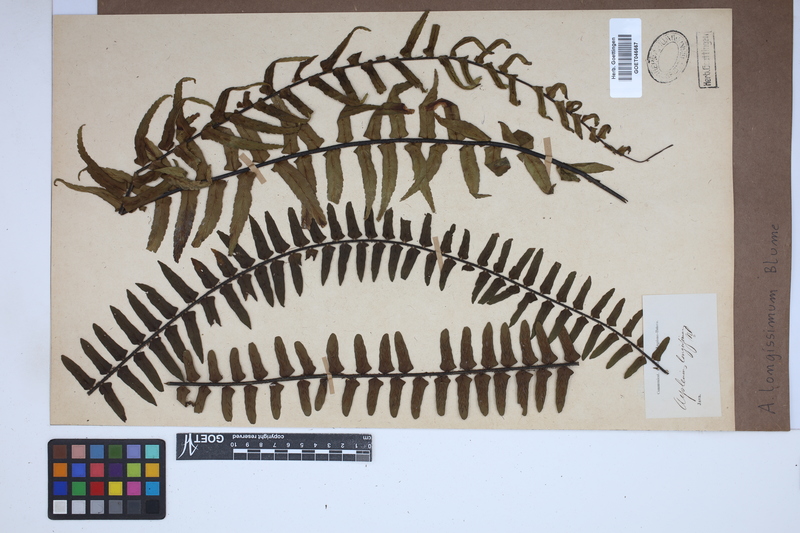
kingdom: Plantae
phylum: Tracheophyta
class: Polypodiopsida
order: Polypodiales
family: Aspleniaceae
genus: Asplenium
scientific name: Asplenium longissimum
